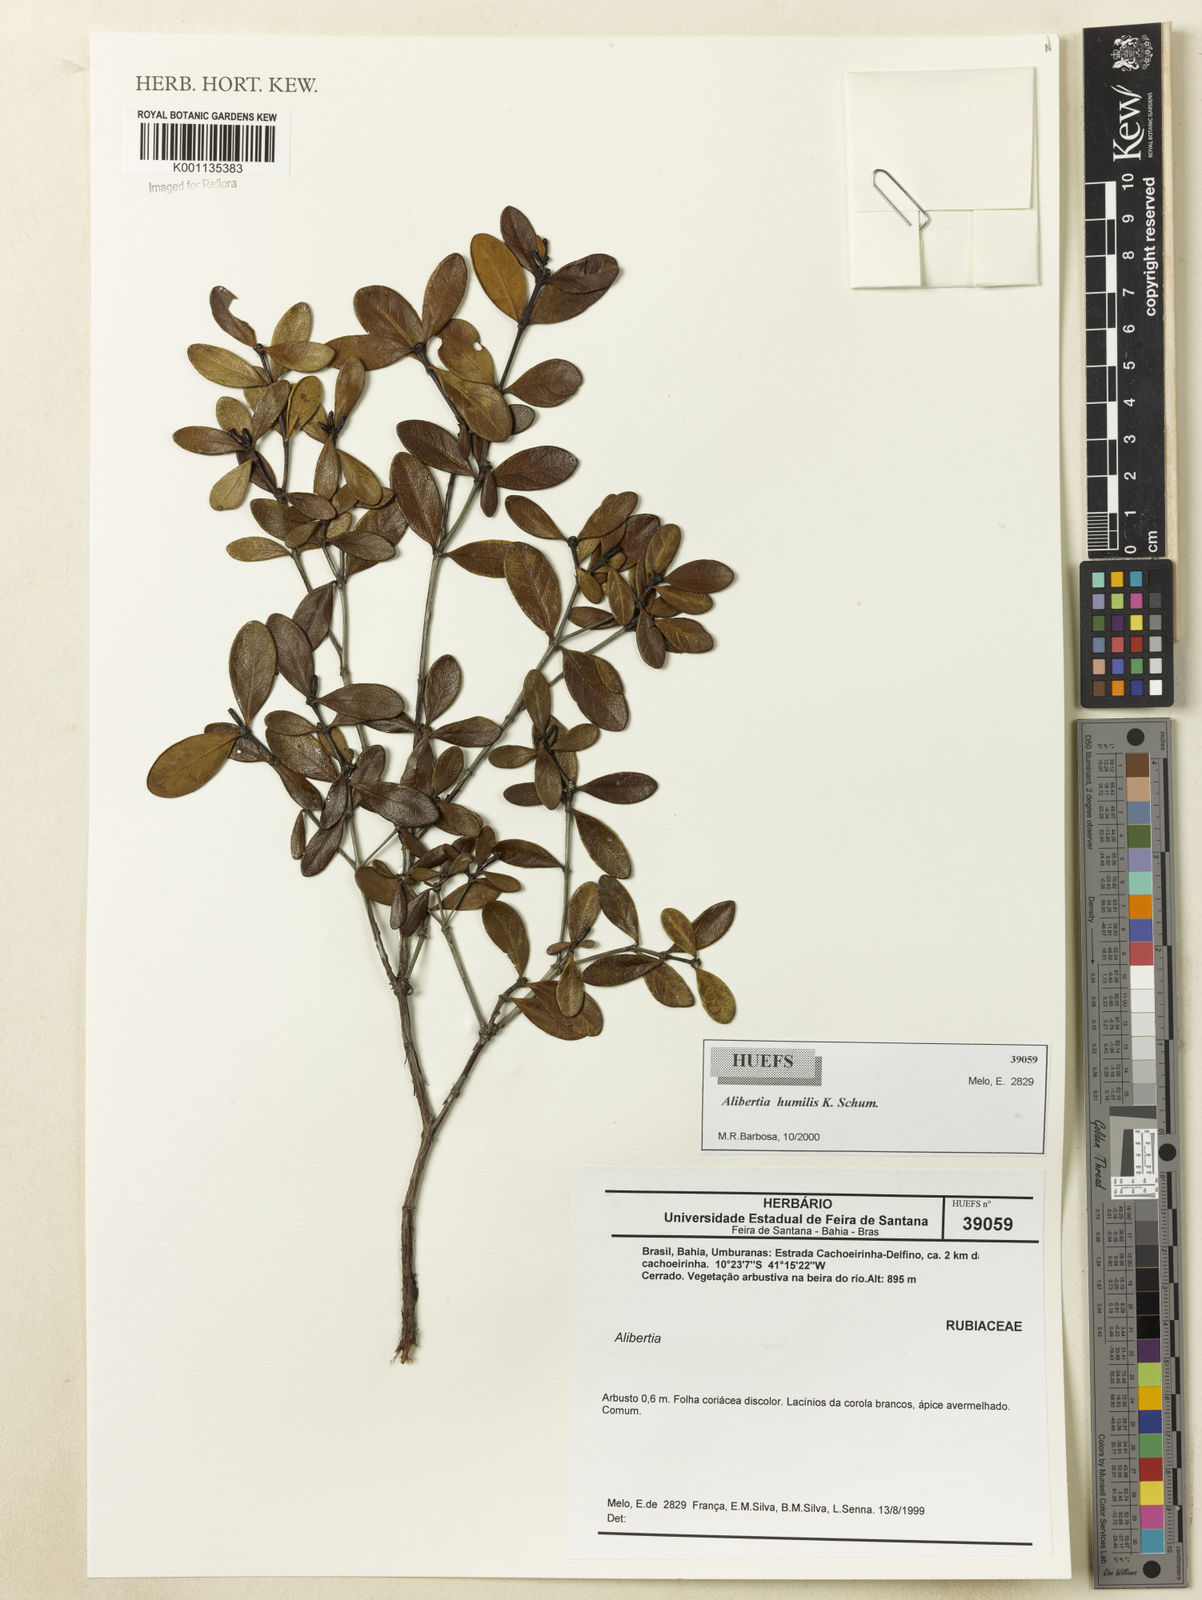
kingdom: Plantae
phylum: Tracheophyta
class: Magnoliopsida
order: Gentianales
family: Rubiaceae
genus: Cordiera
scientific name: Cordiera humilis
